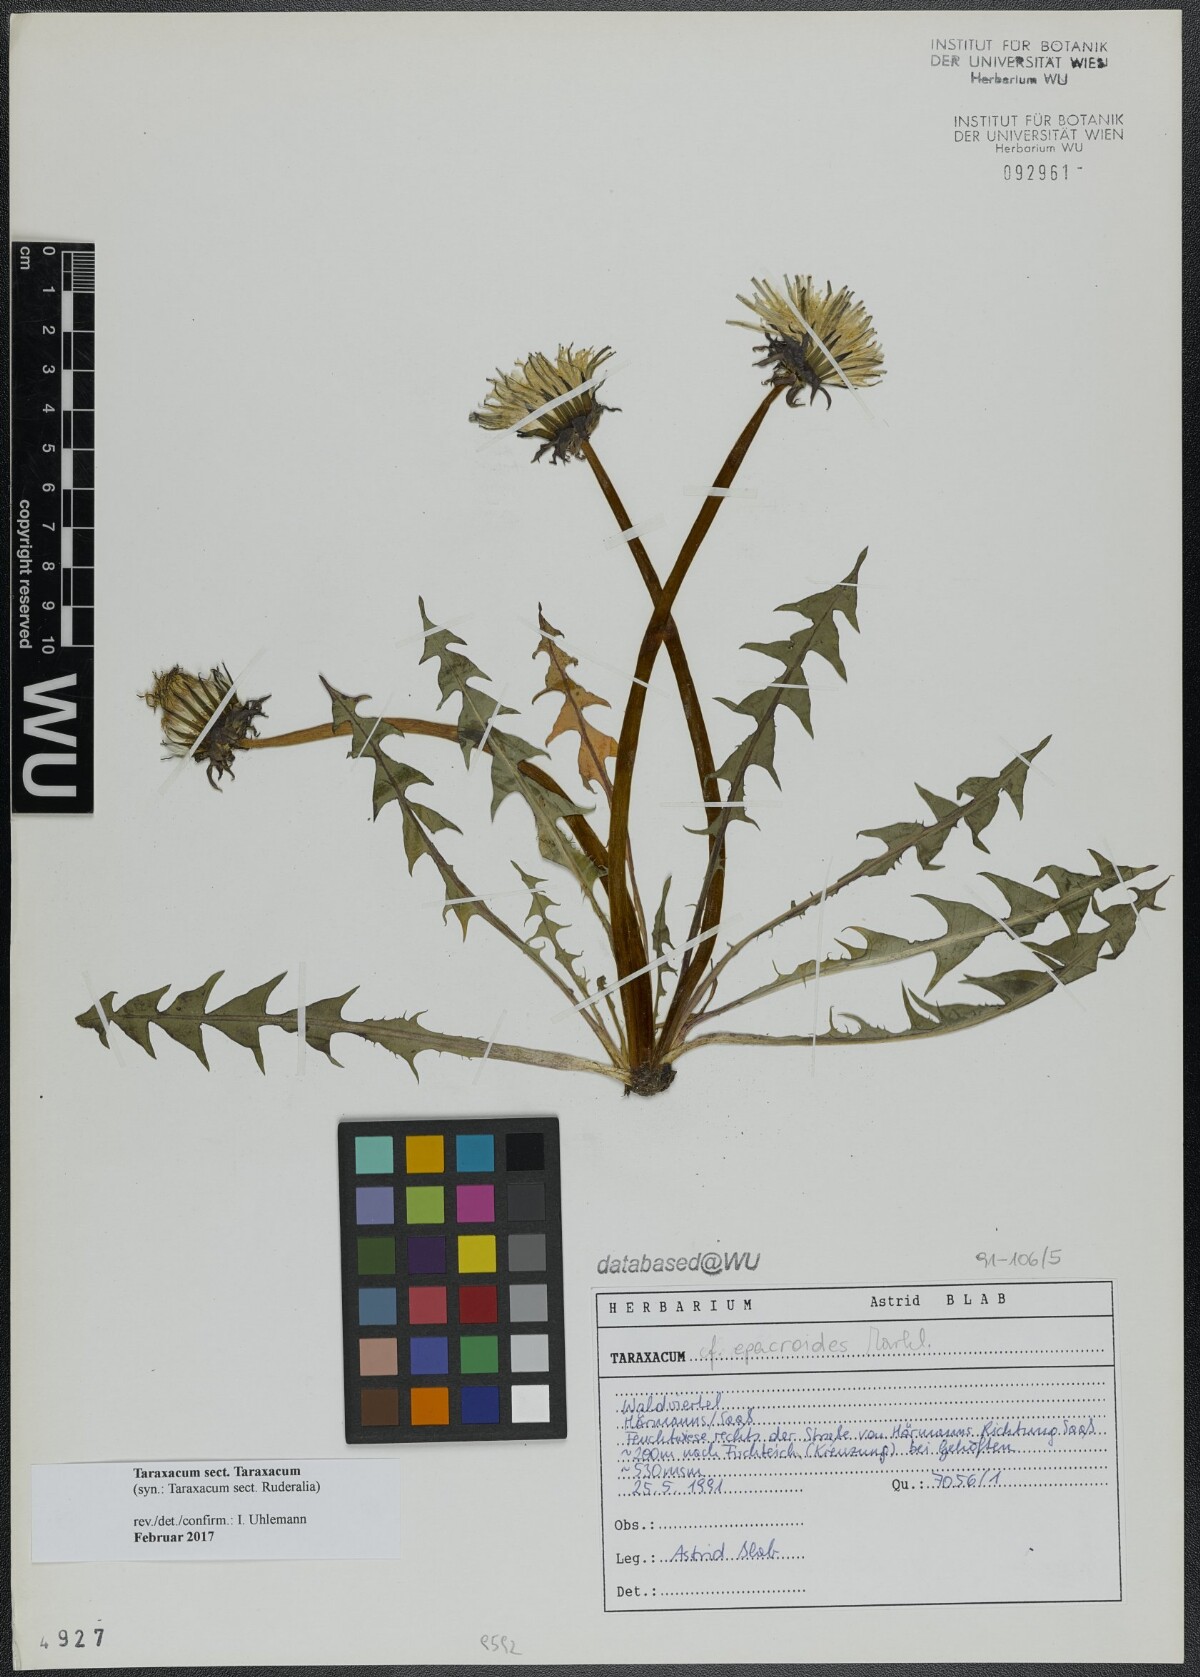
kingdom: Plantae
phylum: Tracheophyta
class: Magnoliopsida
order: Asterales
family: Asteraceae
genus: Taraxacum
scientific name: Taraxacum
